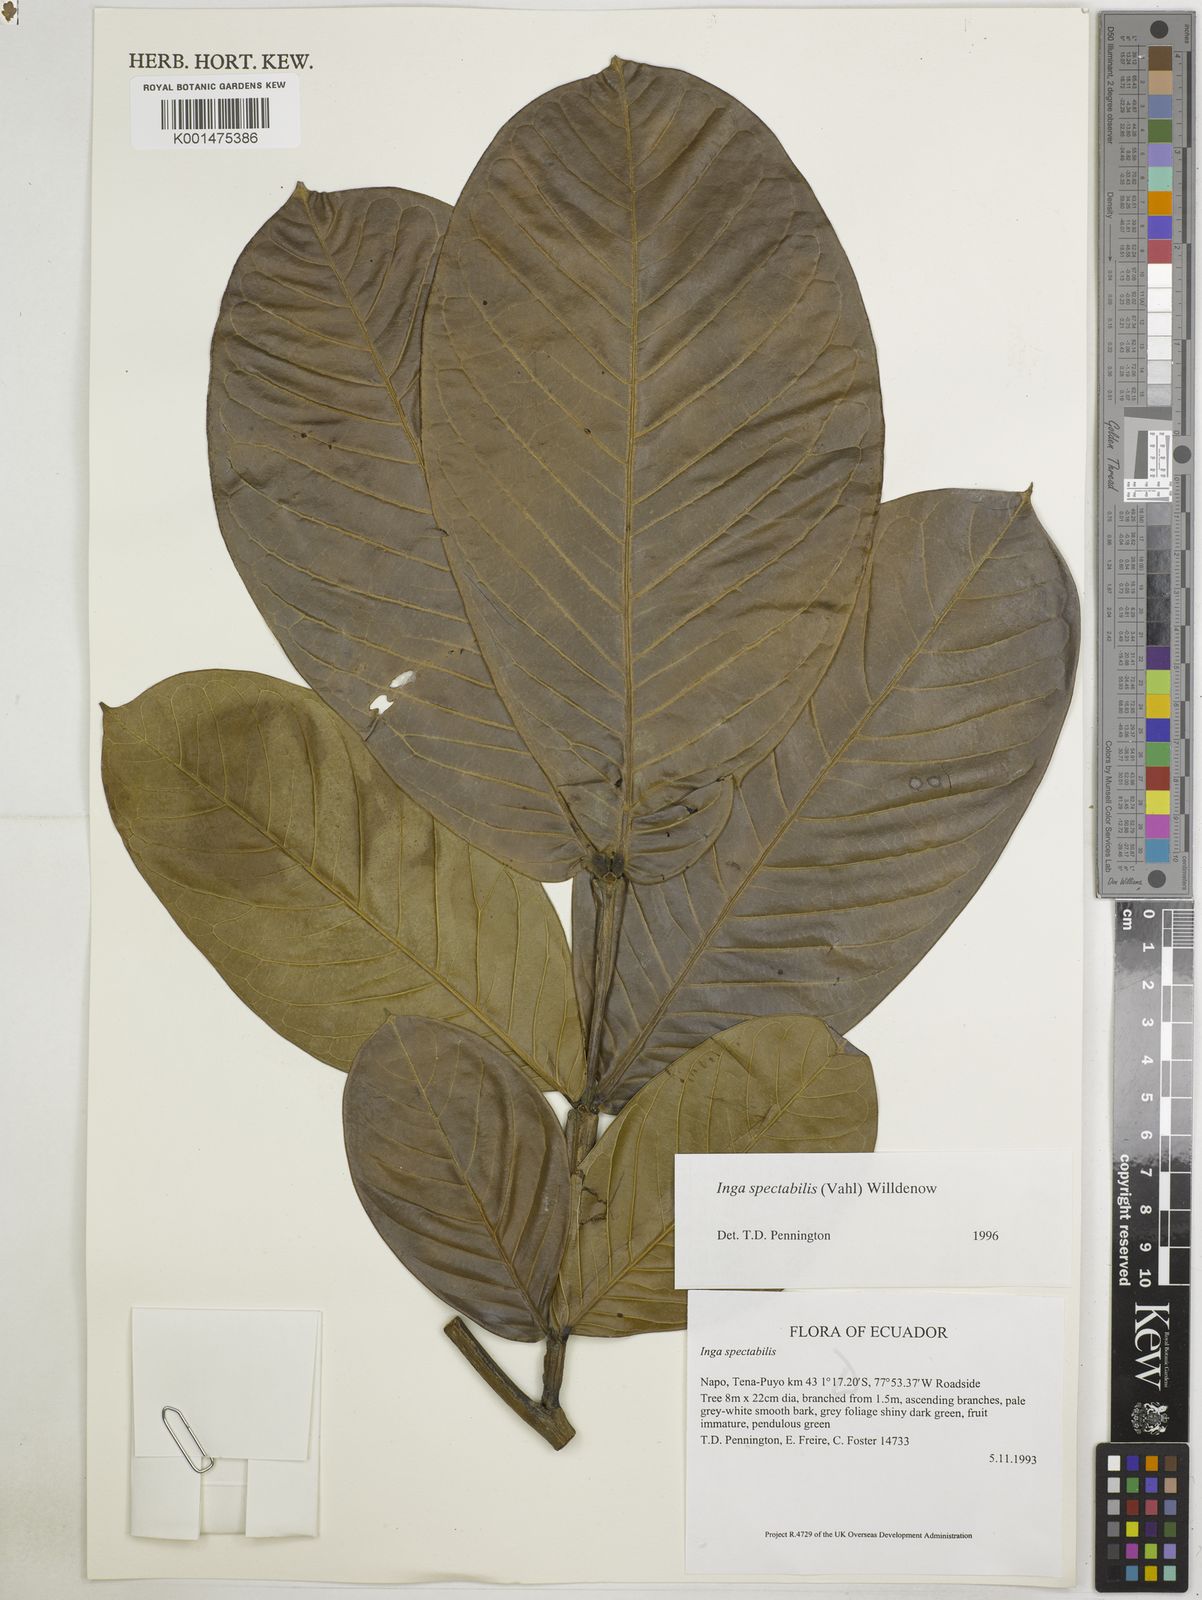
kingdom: Plantae
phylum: Tracheophyta
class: Magnoliopsida
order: Fabales
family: Fabaceae
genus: Inga
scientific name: Inga spectabilis
